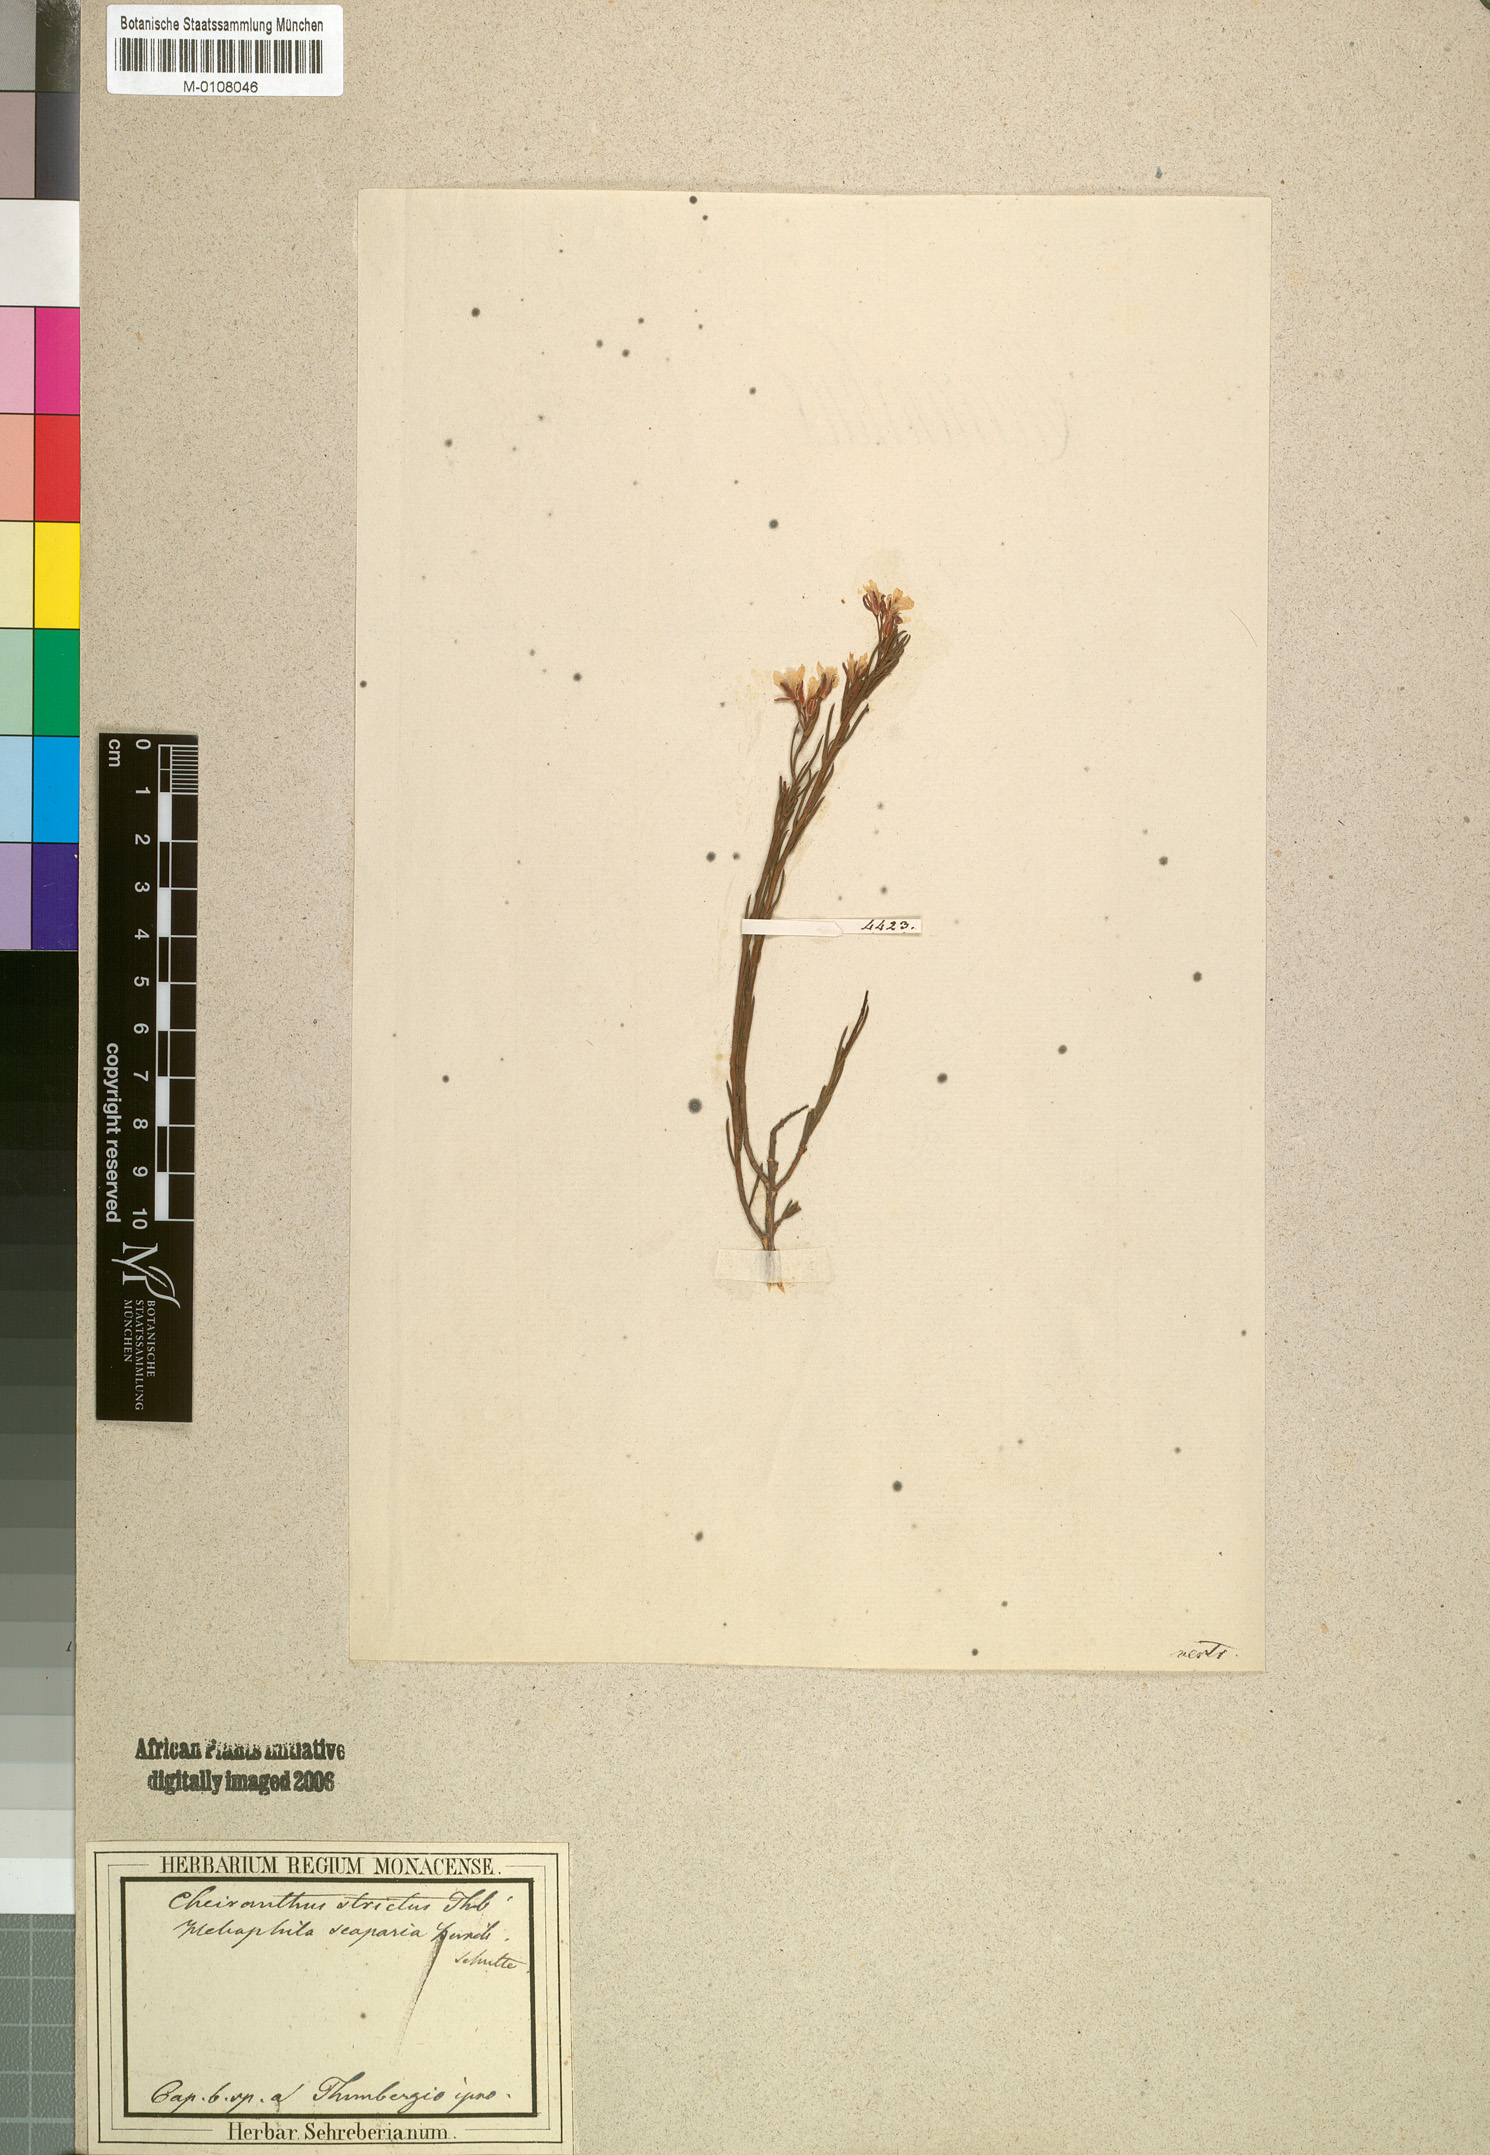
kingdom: Plantae
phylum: Tracheophyta
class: Magnoliopsida
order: Brassicales
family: Brassicaceae
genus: Heliophila
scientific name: Heliophila scoparia
